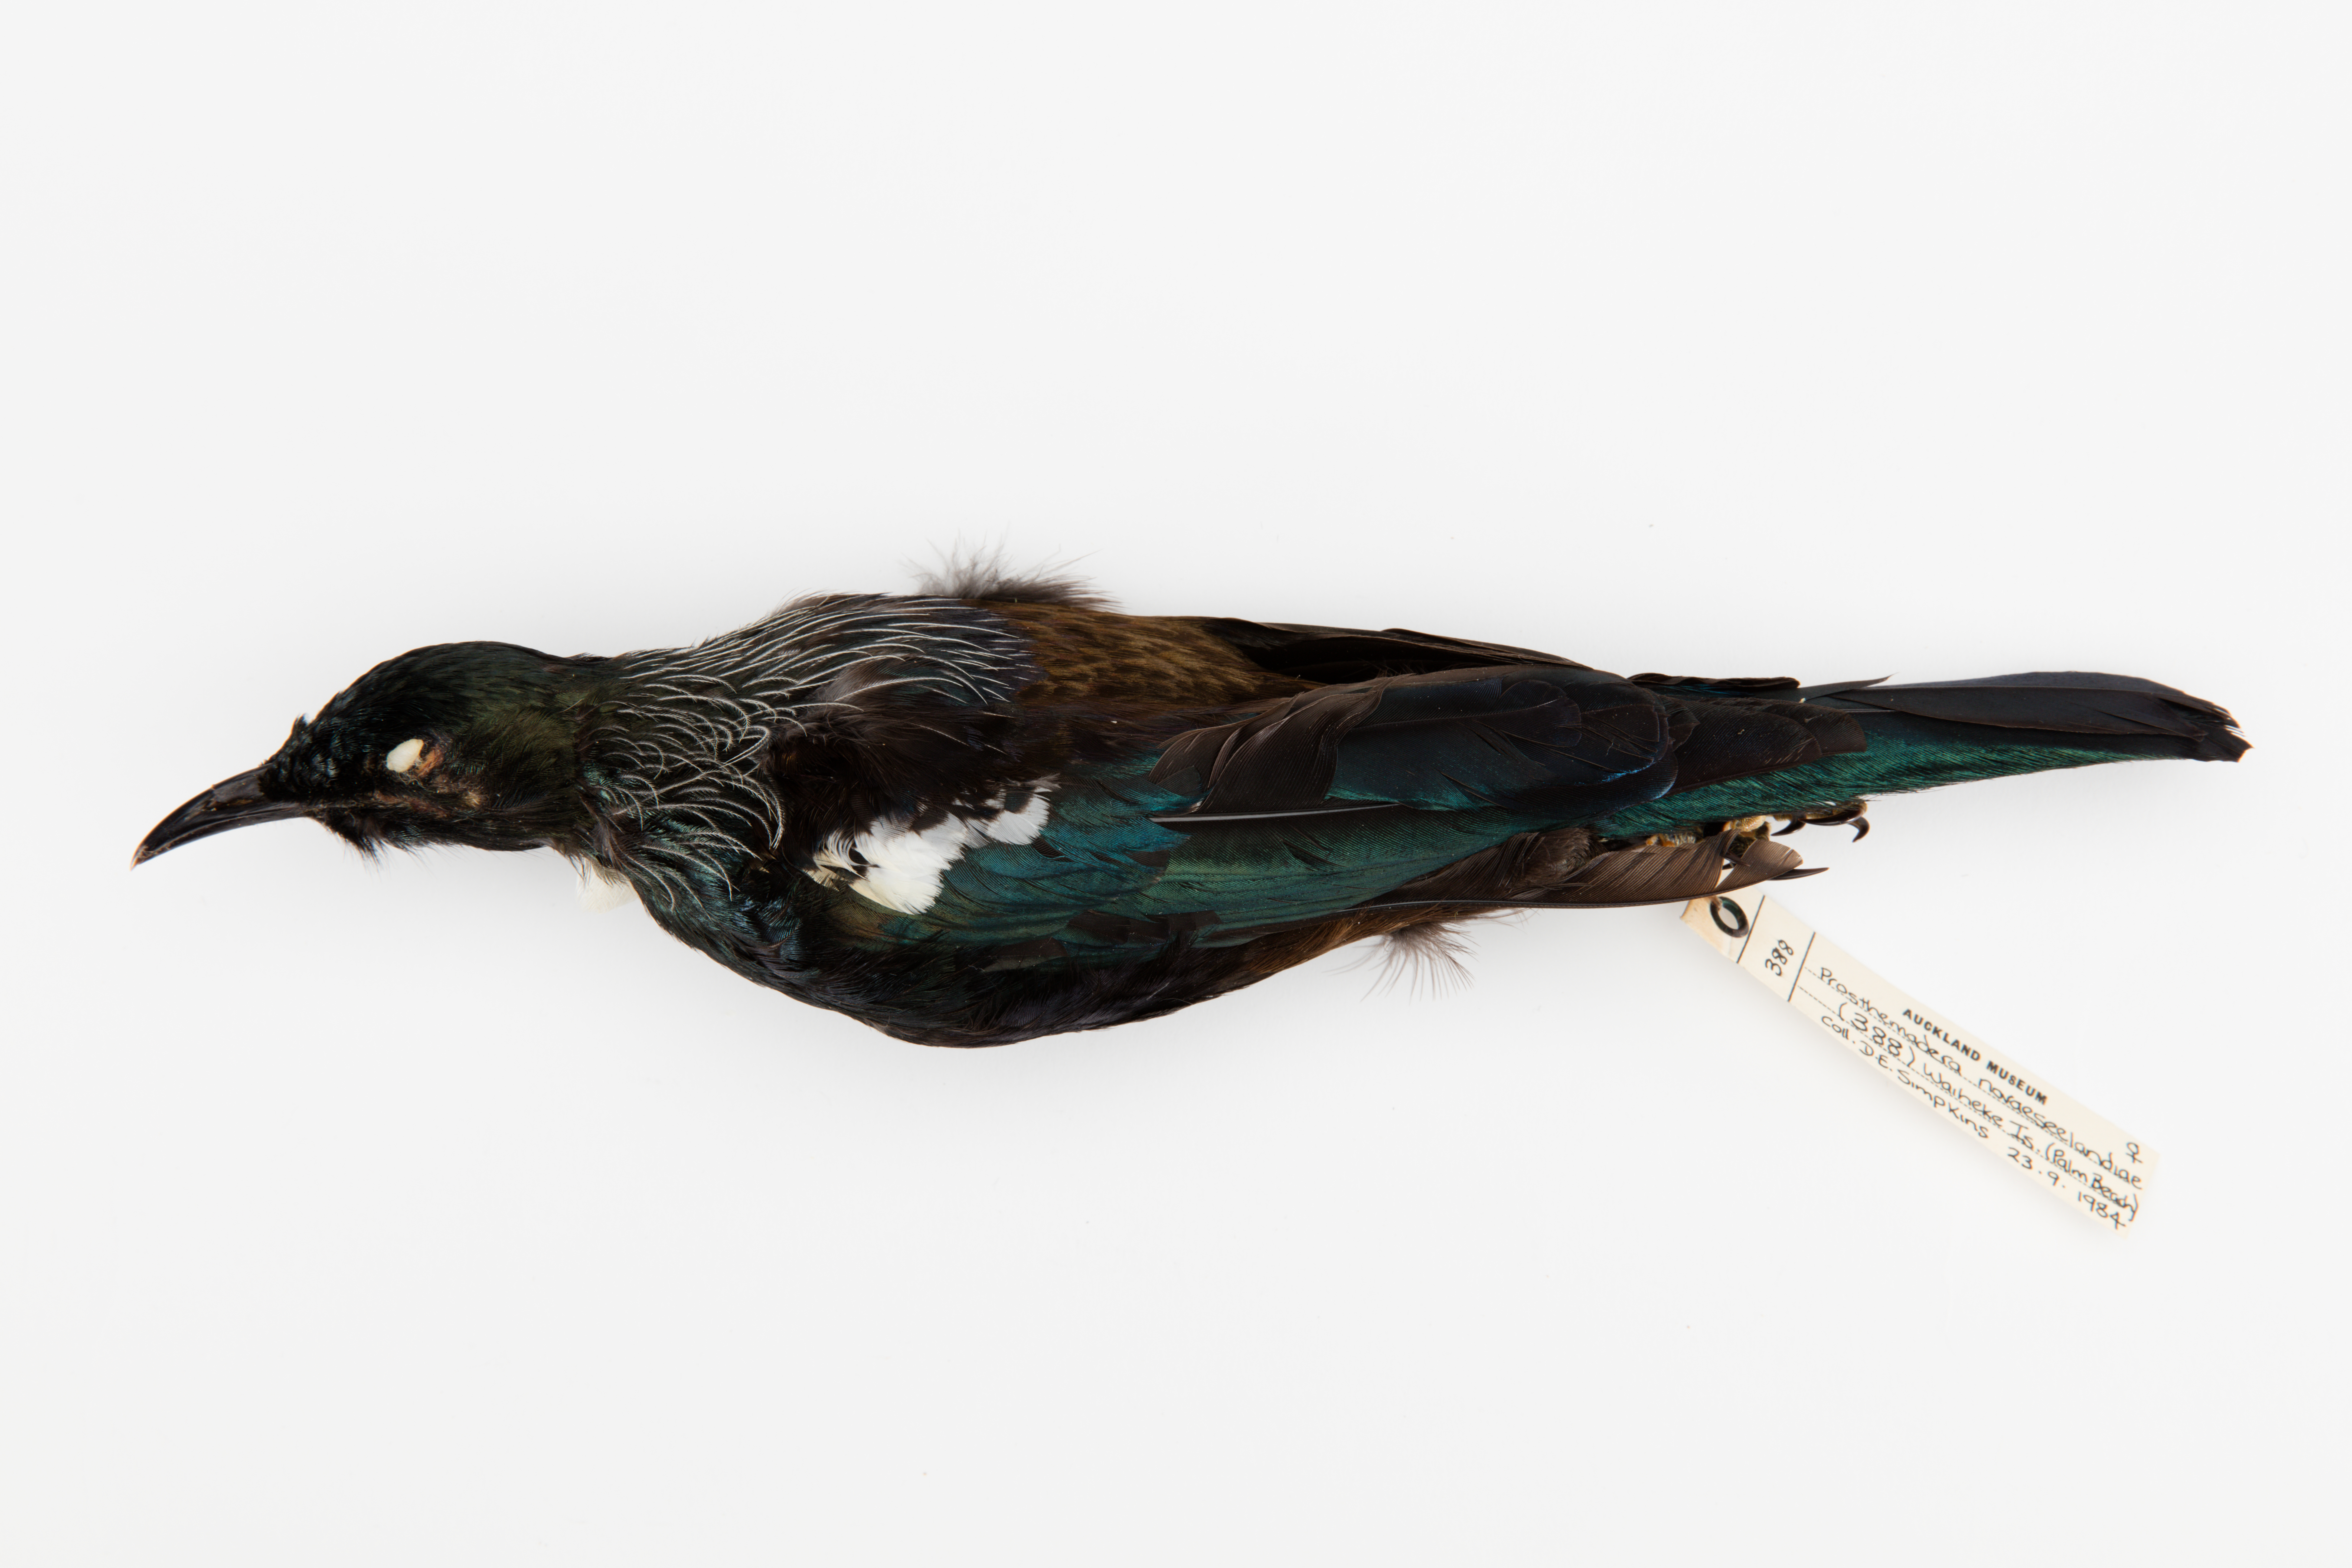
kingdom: Animalia
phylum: Chordata
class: Aves
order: Passeriformes
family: Meliphagidae
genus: Prosthemadera
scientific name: Prosthemadera novaeseelandiae
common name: Tui
